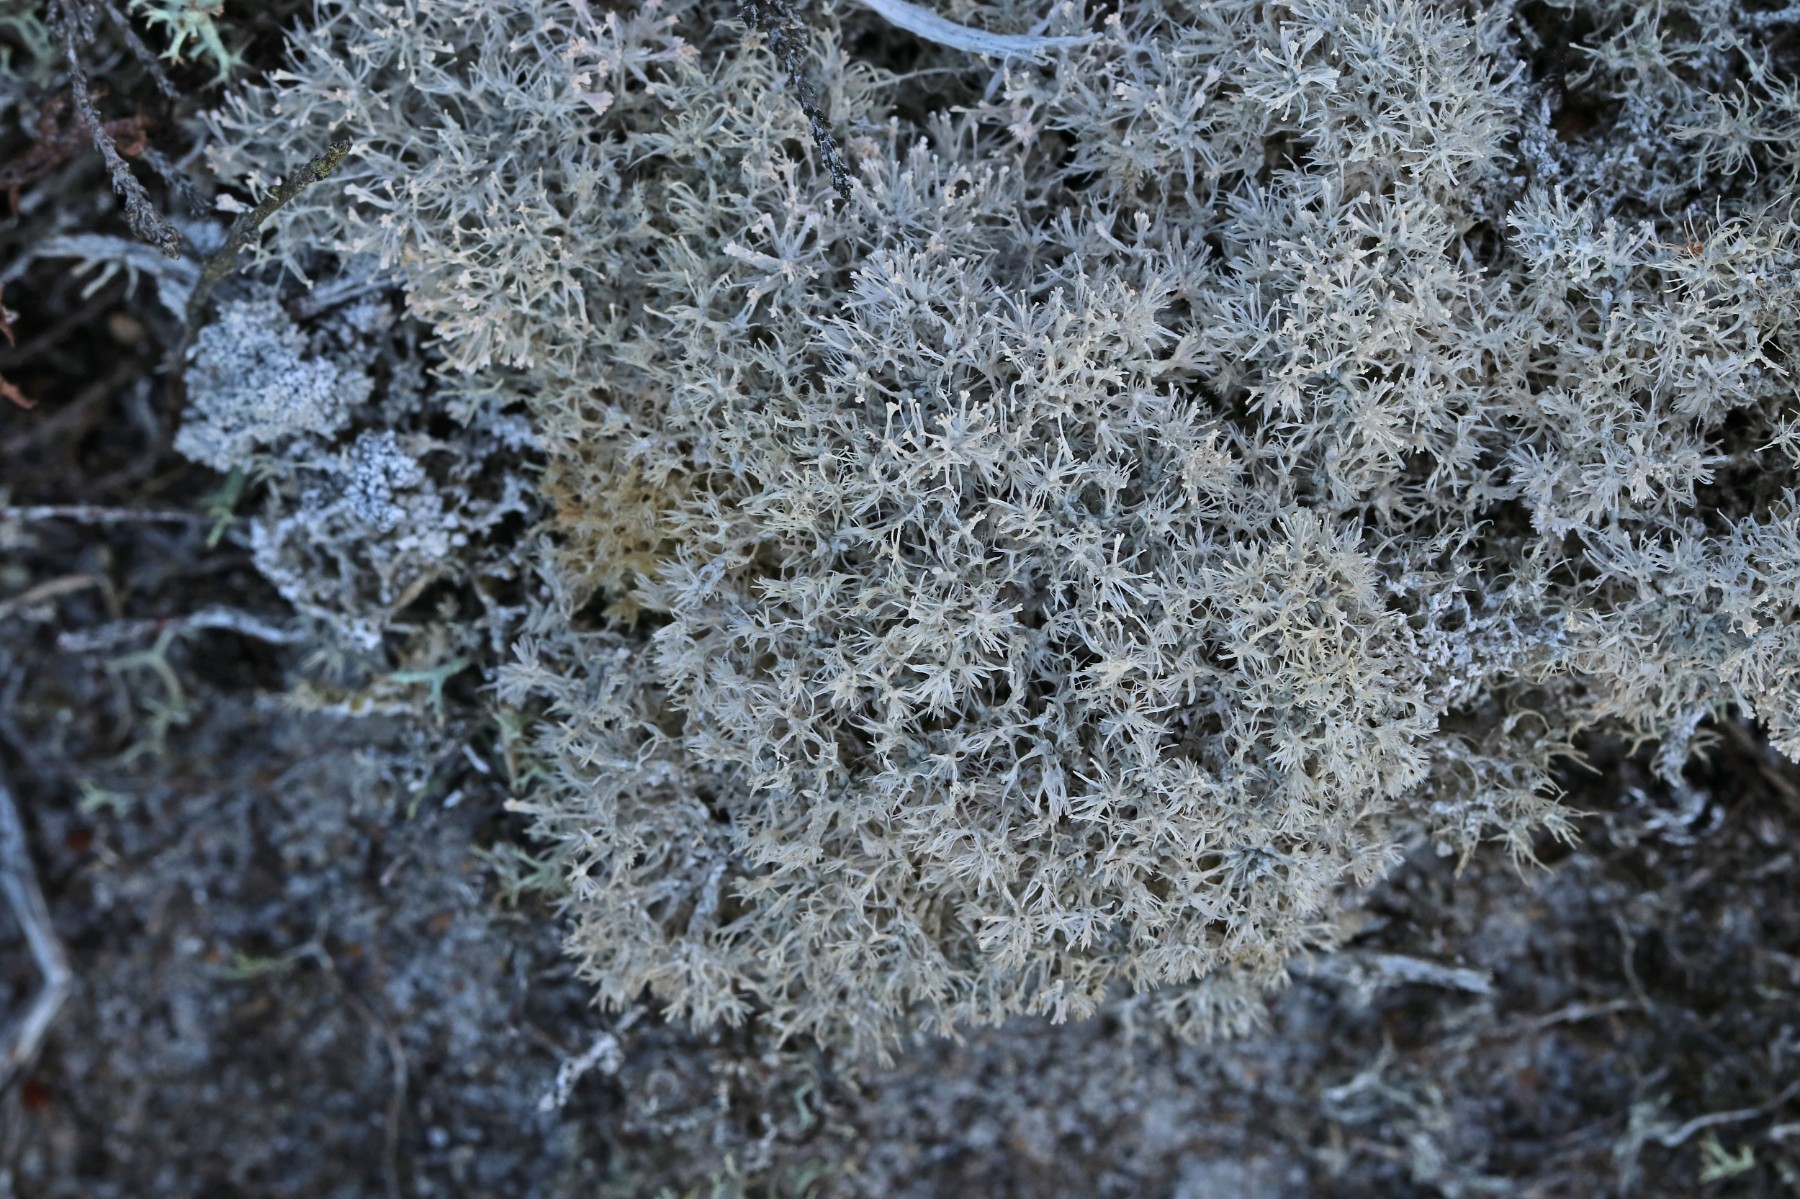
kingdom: Fungi
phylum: Ascomycota
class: Lecanoromycetes
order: Pertusariales
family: Ochrolechiaceae
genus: Ochrolechia
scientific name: Ochrolechia frigida
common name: fjeld-blegskivelav
